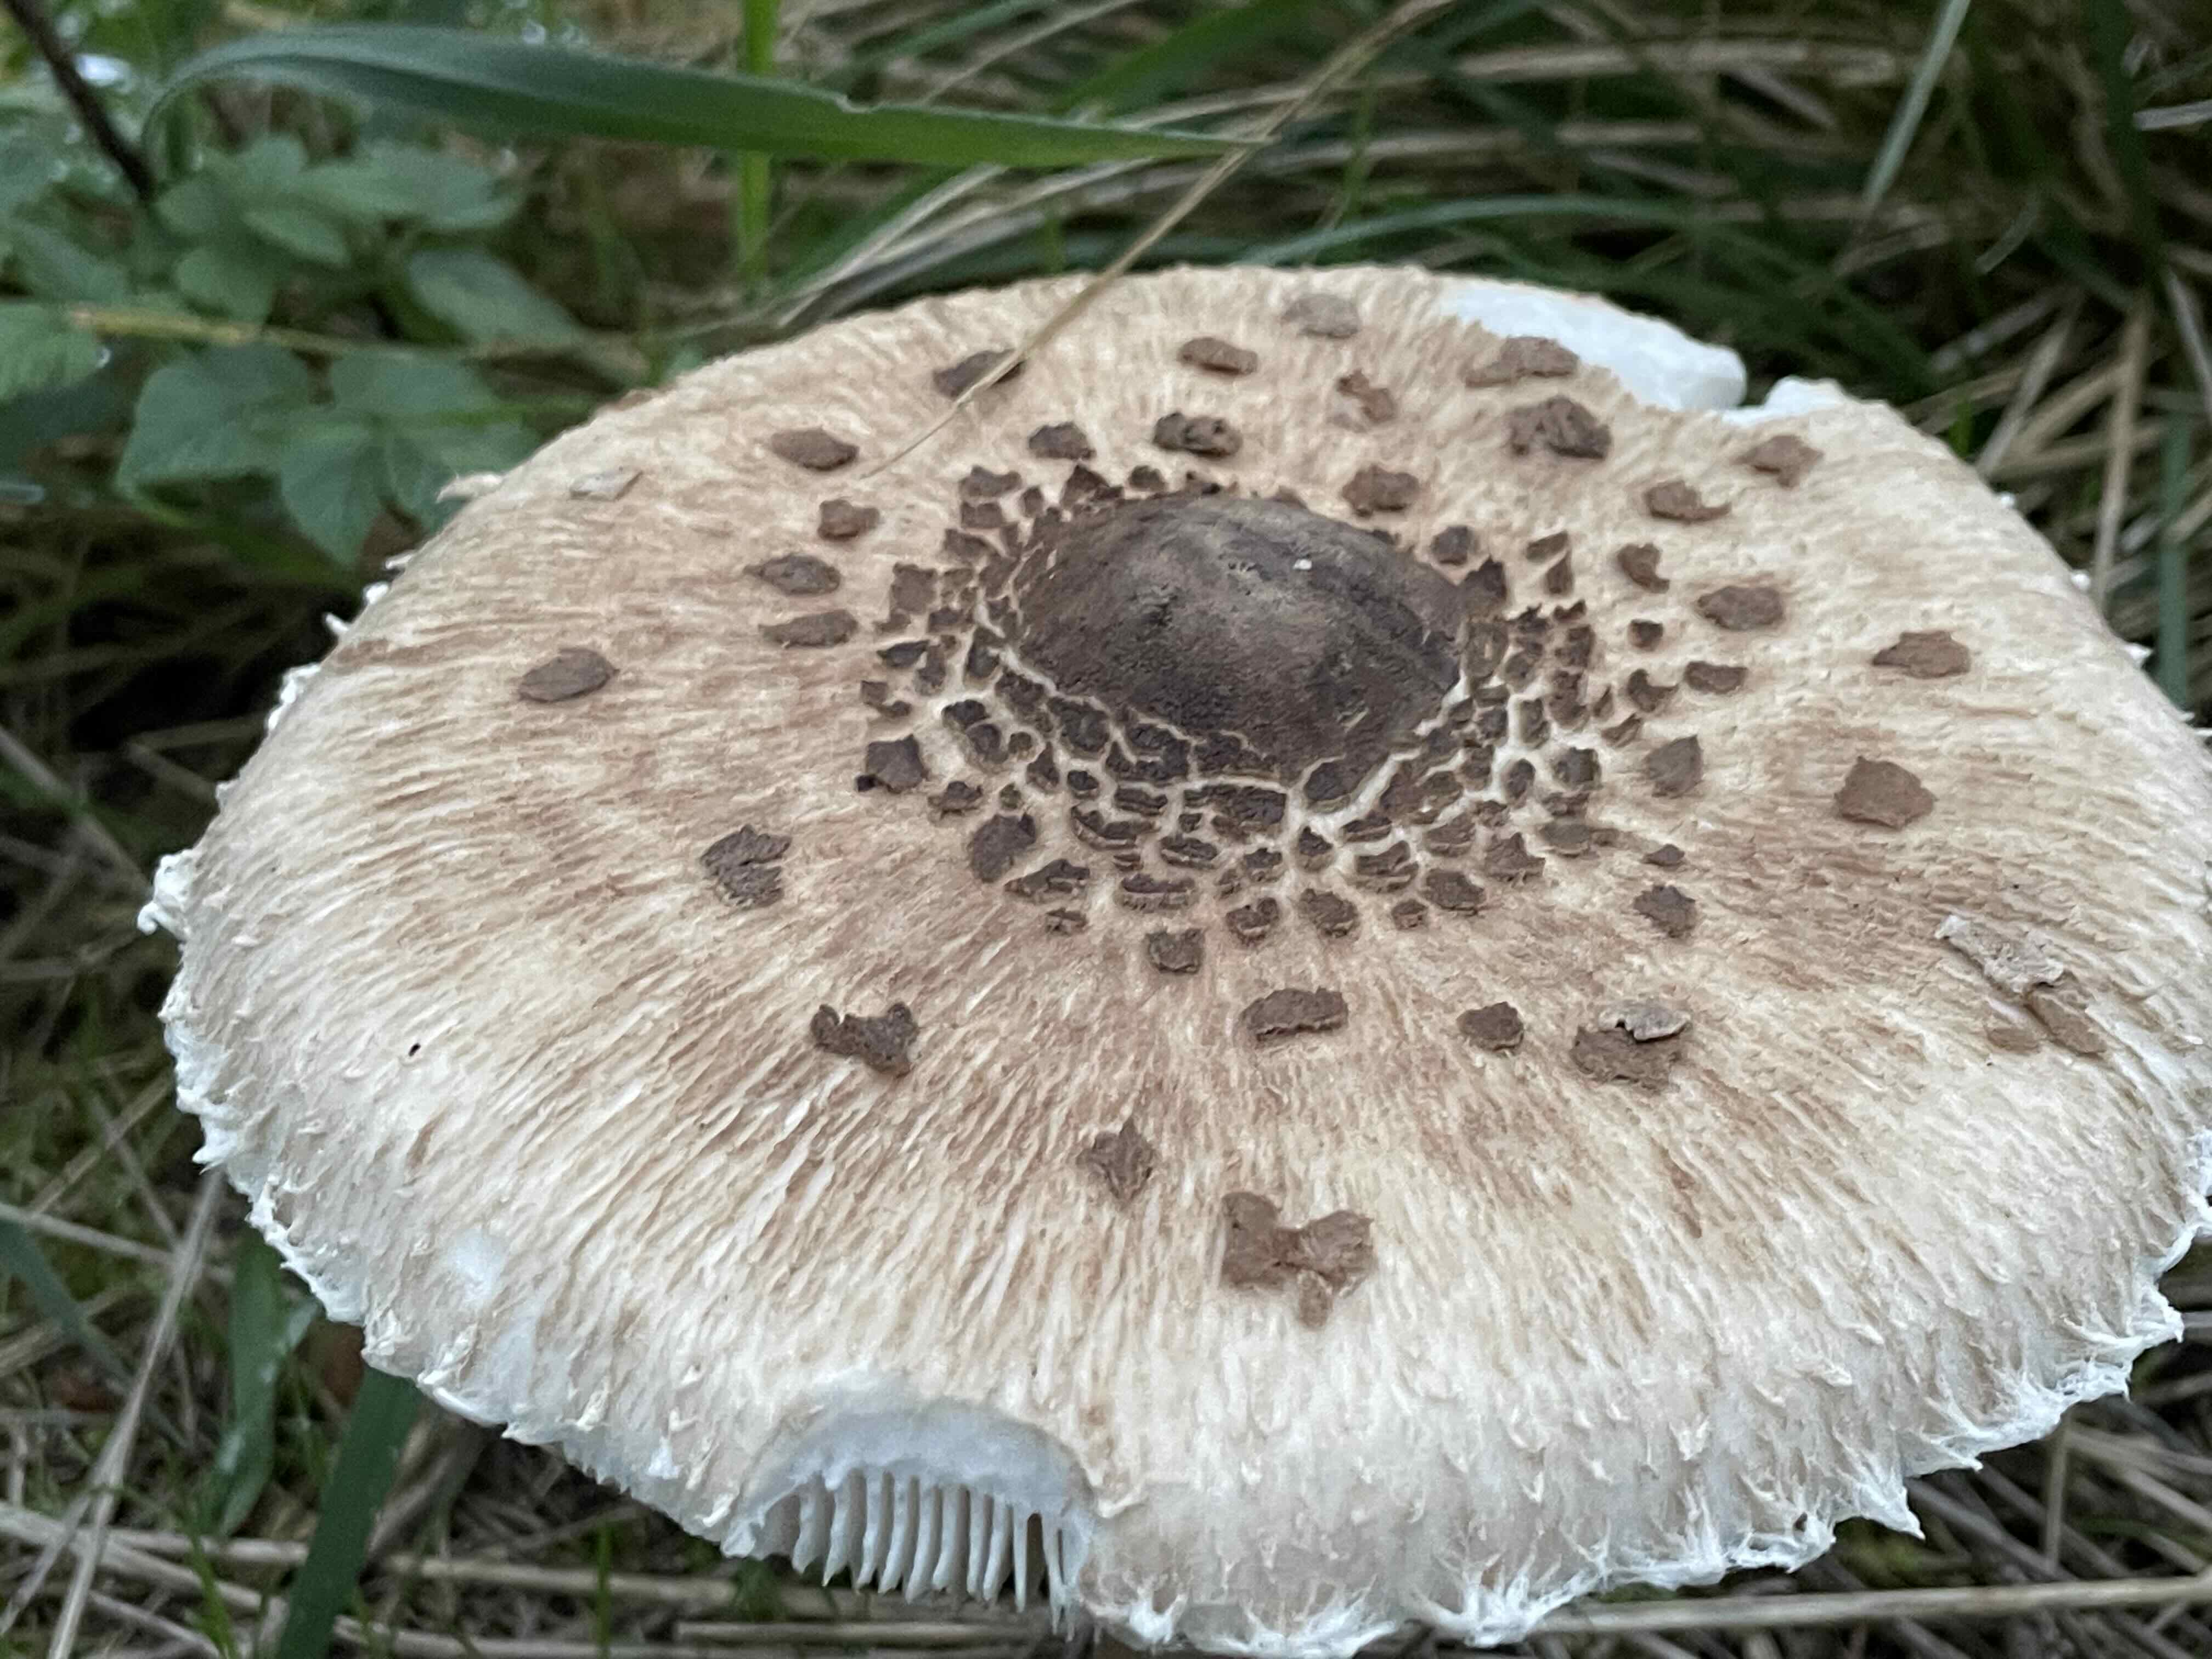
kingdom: Fungi
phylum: Basidiomycota
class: Agaricomycetes
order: Agaricales
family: Agaricaceae
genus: Macrolepiota
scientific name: Macrolepiota procera
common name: stor kæmpeparasolhat
